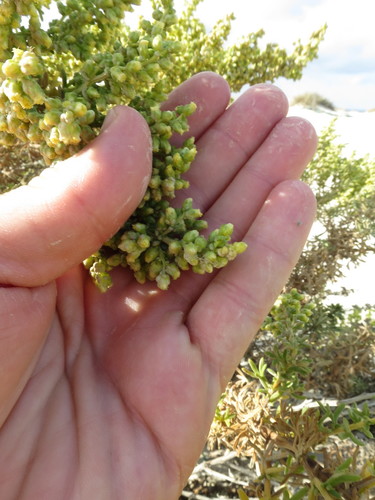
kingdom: Plantae
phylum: Tracheophyta
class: Magnoliopsida
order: Asterales
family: Asteraceae
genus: Artemisia
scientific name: Artemisia crithmifolia
